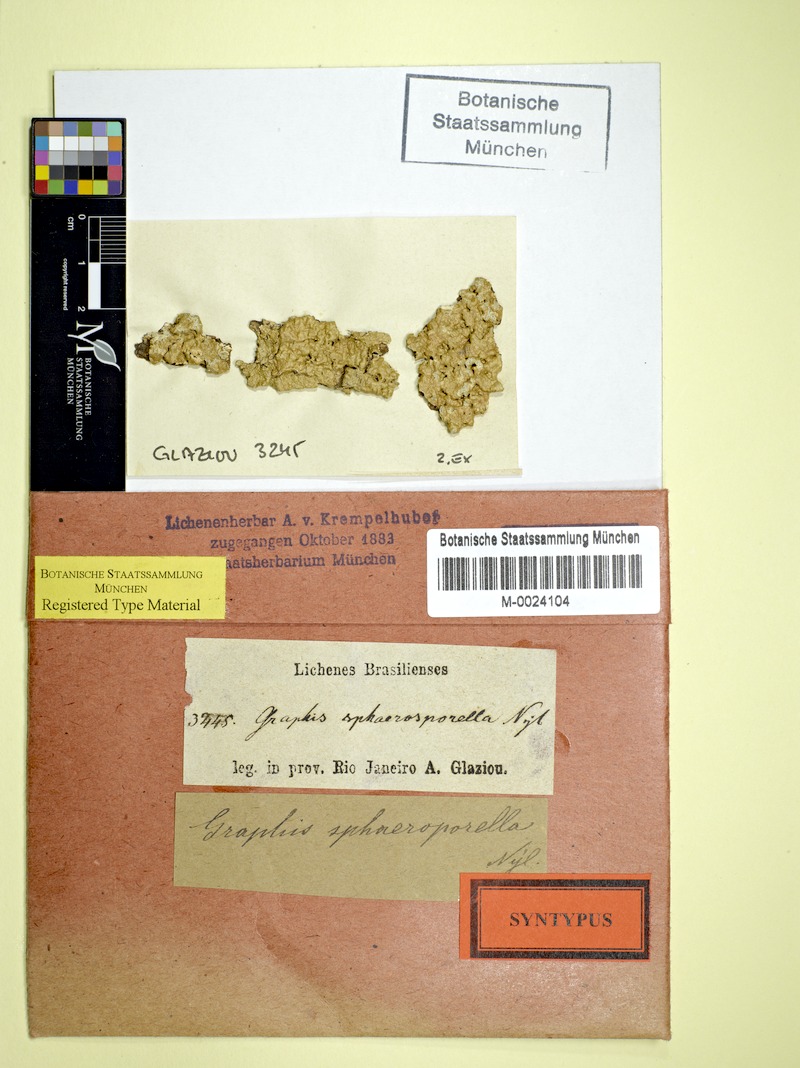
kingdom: Fungi
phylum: Ascomycota
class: Lecanoromycetes
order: Ostropales
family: Graphidaceae
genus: Platythecium
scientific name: Platythecium sphaerosporellum
